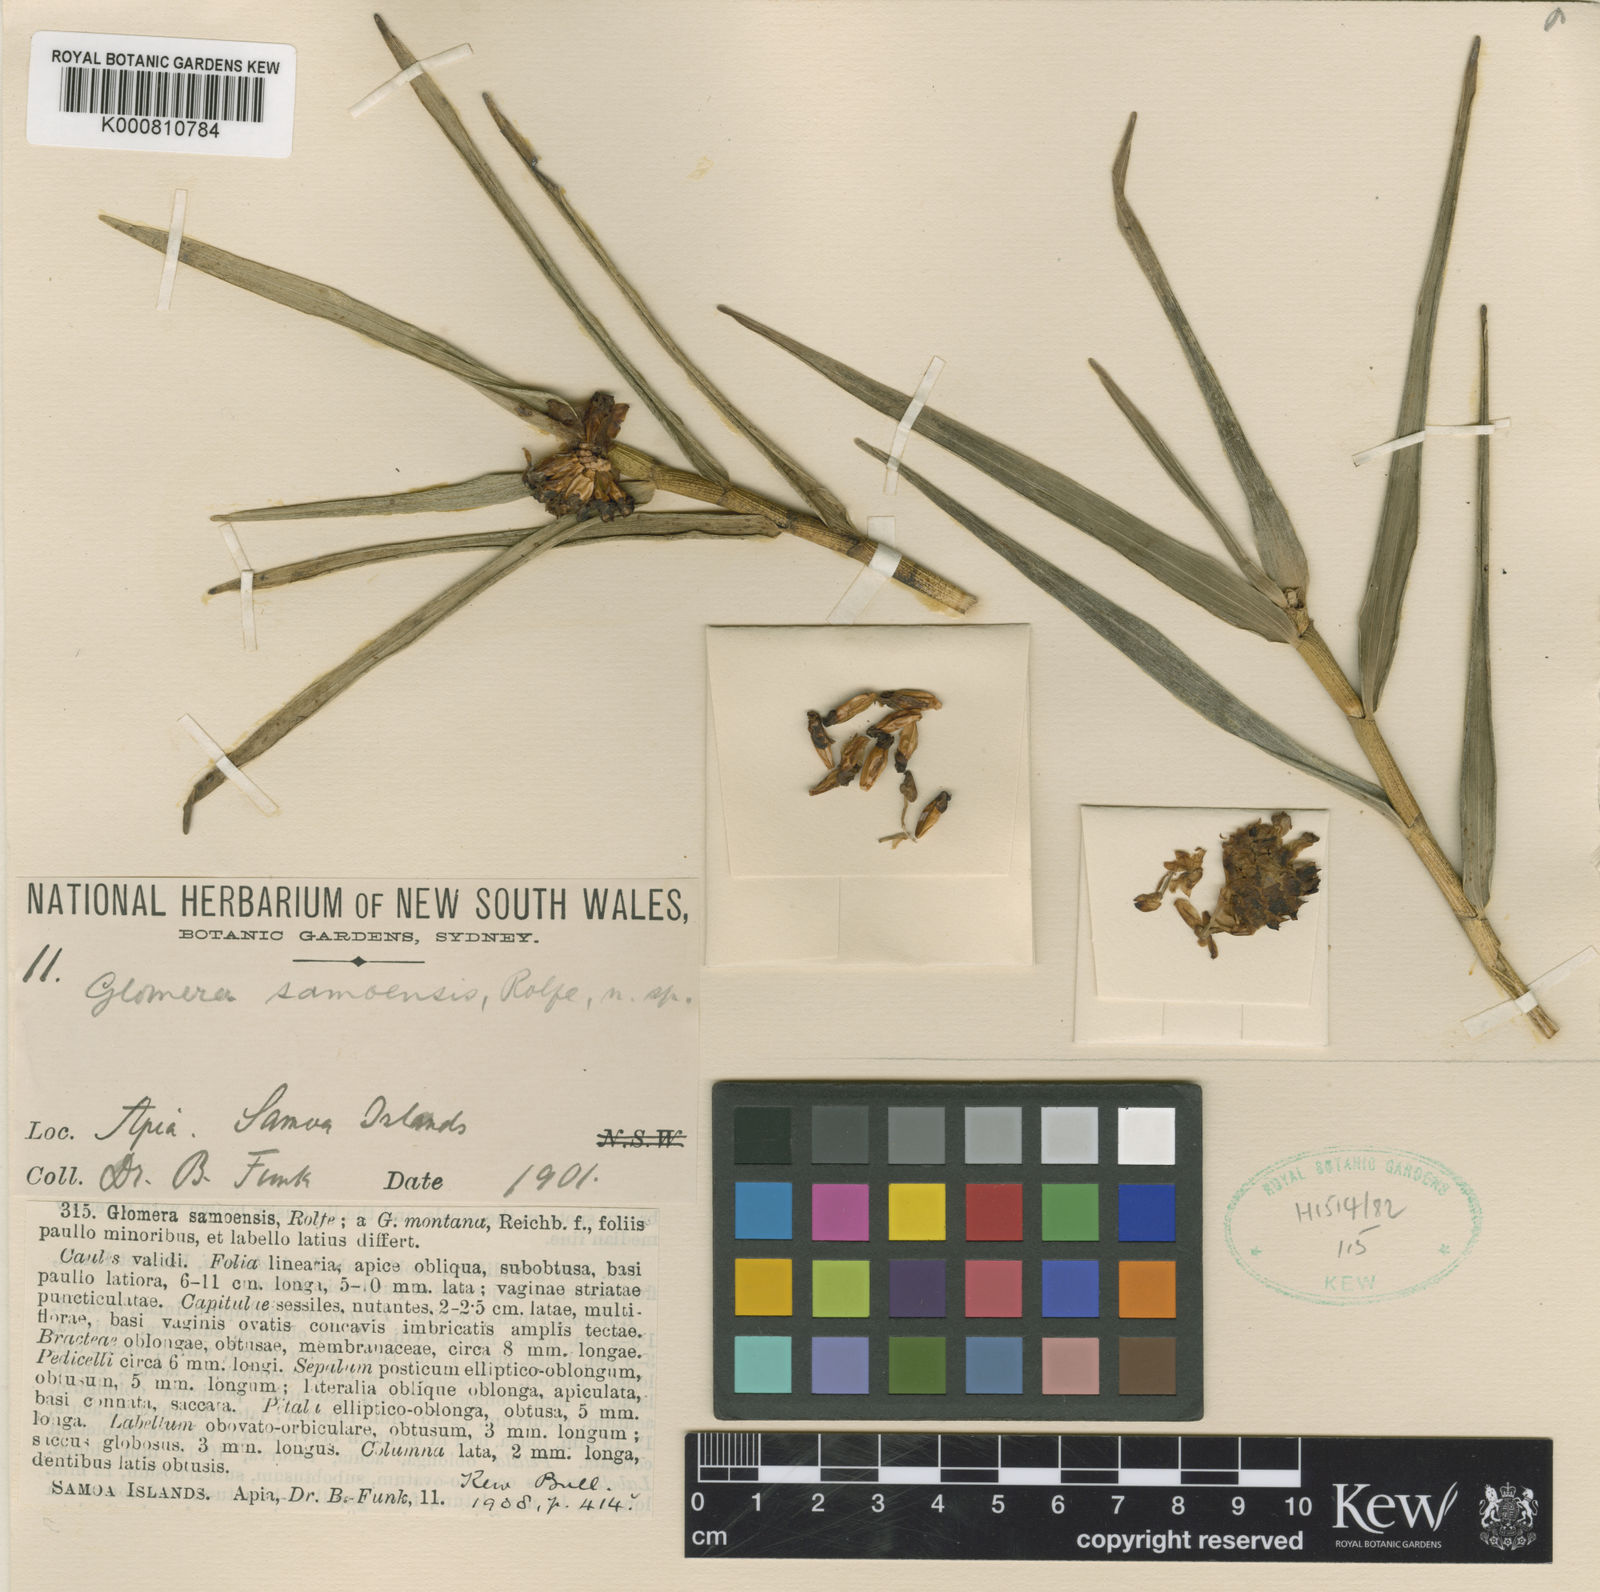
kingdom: Plantae
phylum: Tracheophyta
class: Liliopsida
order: Asparagales
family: Orchidaceae
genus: Glomera
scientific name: Glomera montana
